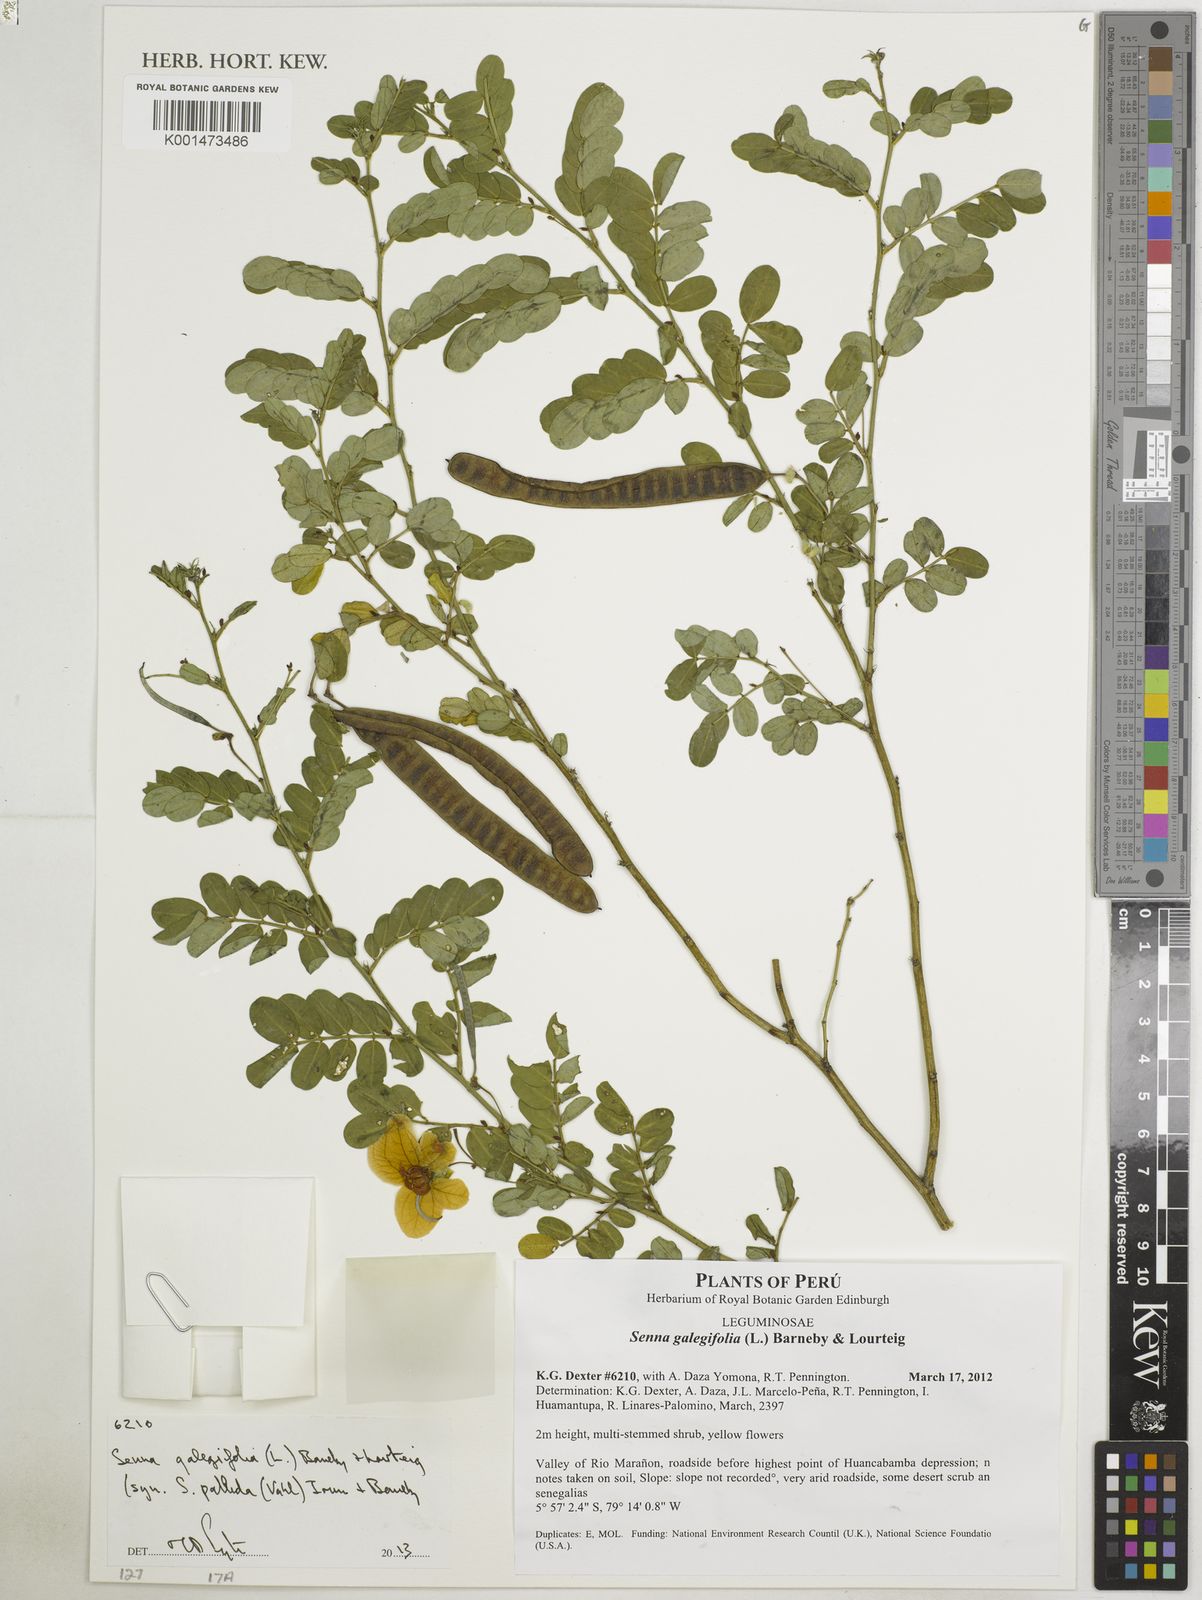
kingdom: Plantae
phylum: Tracheophyta
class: Magnoliopsida
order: Fabales
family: Fabaceae
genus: Senna
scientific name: Senna pallida
